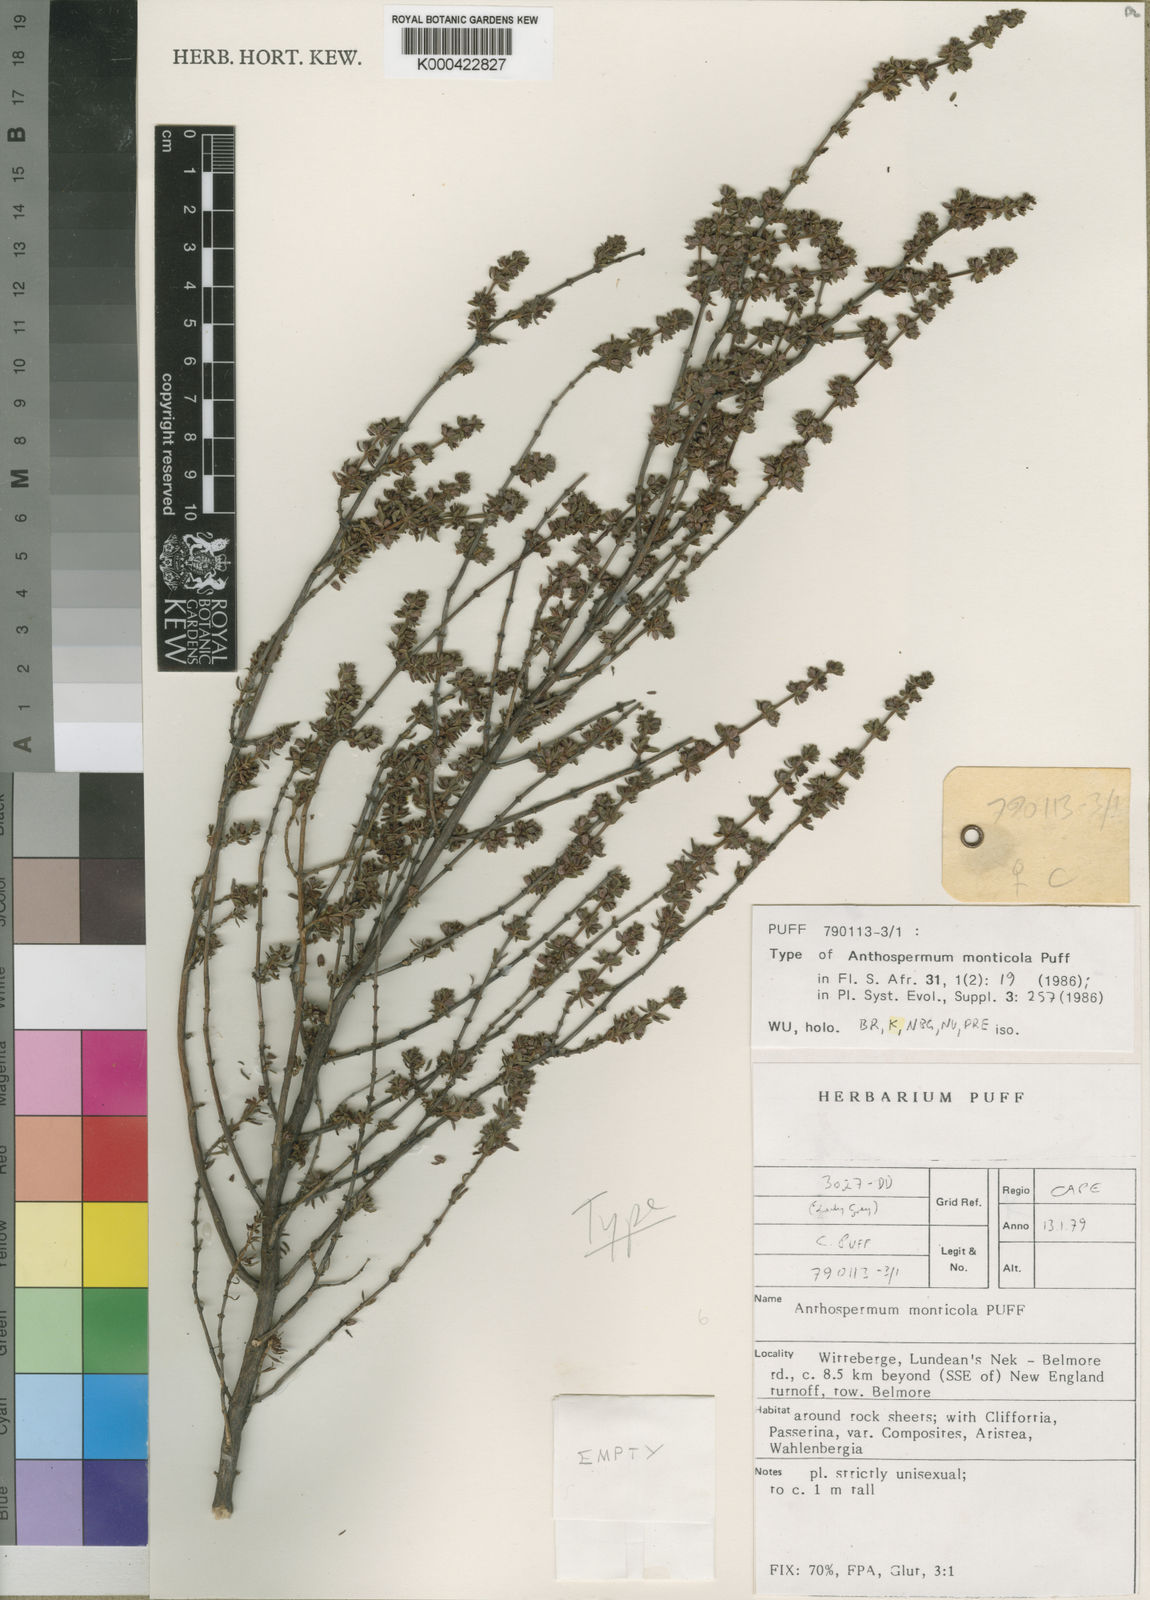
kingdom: Plantae
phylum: Tracheophyta
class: Magnoliopsida
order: Gentianales
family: Rubiaceae
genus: Anthospermum
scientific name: Anthospermum monticola
